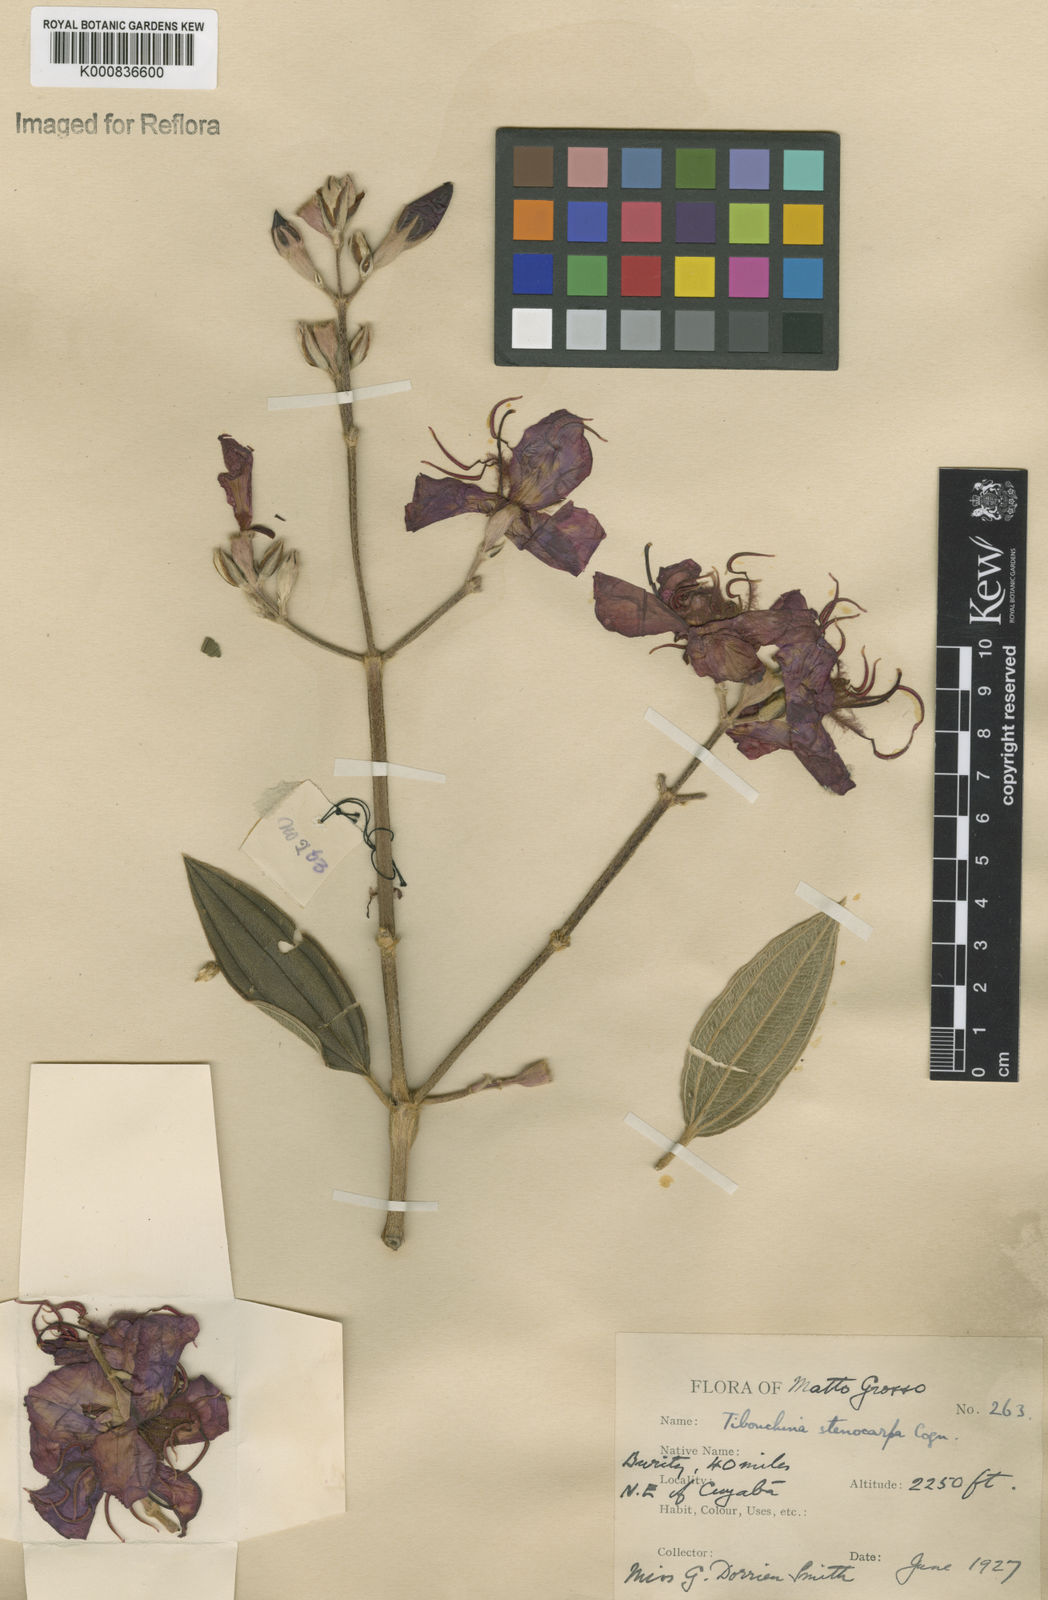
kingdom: Plantae
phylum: Tracheophyta
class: Magnoliopsida
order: Myrtales
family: Melastomataceae
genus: Pleroma
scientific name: Pleroma stenocarpum
